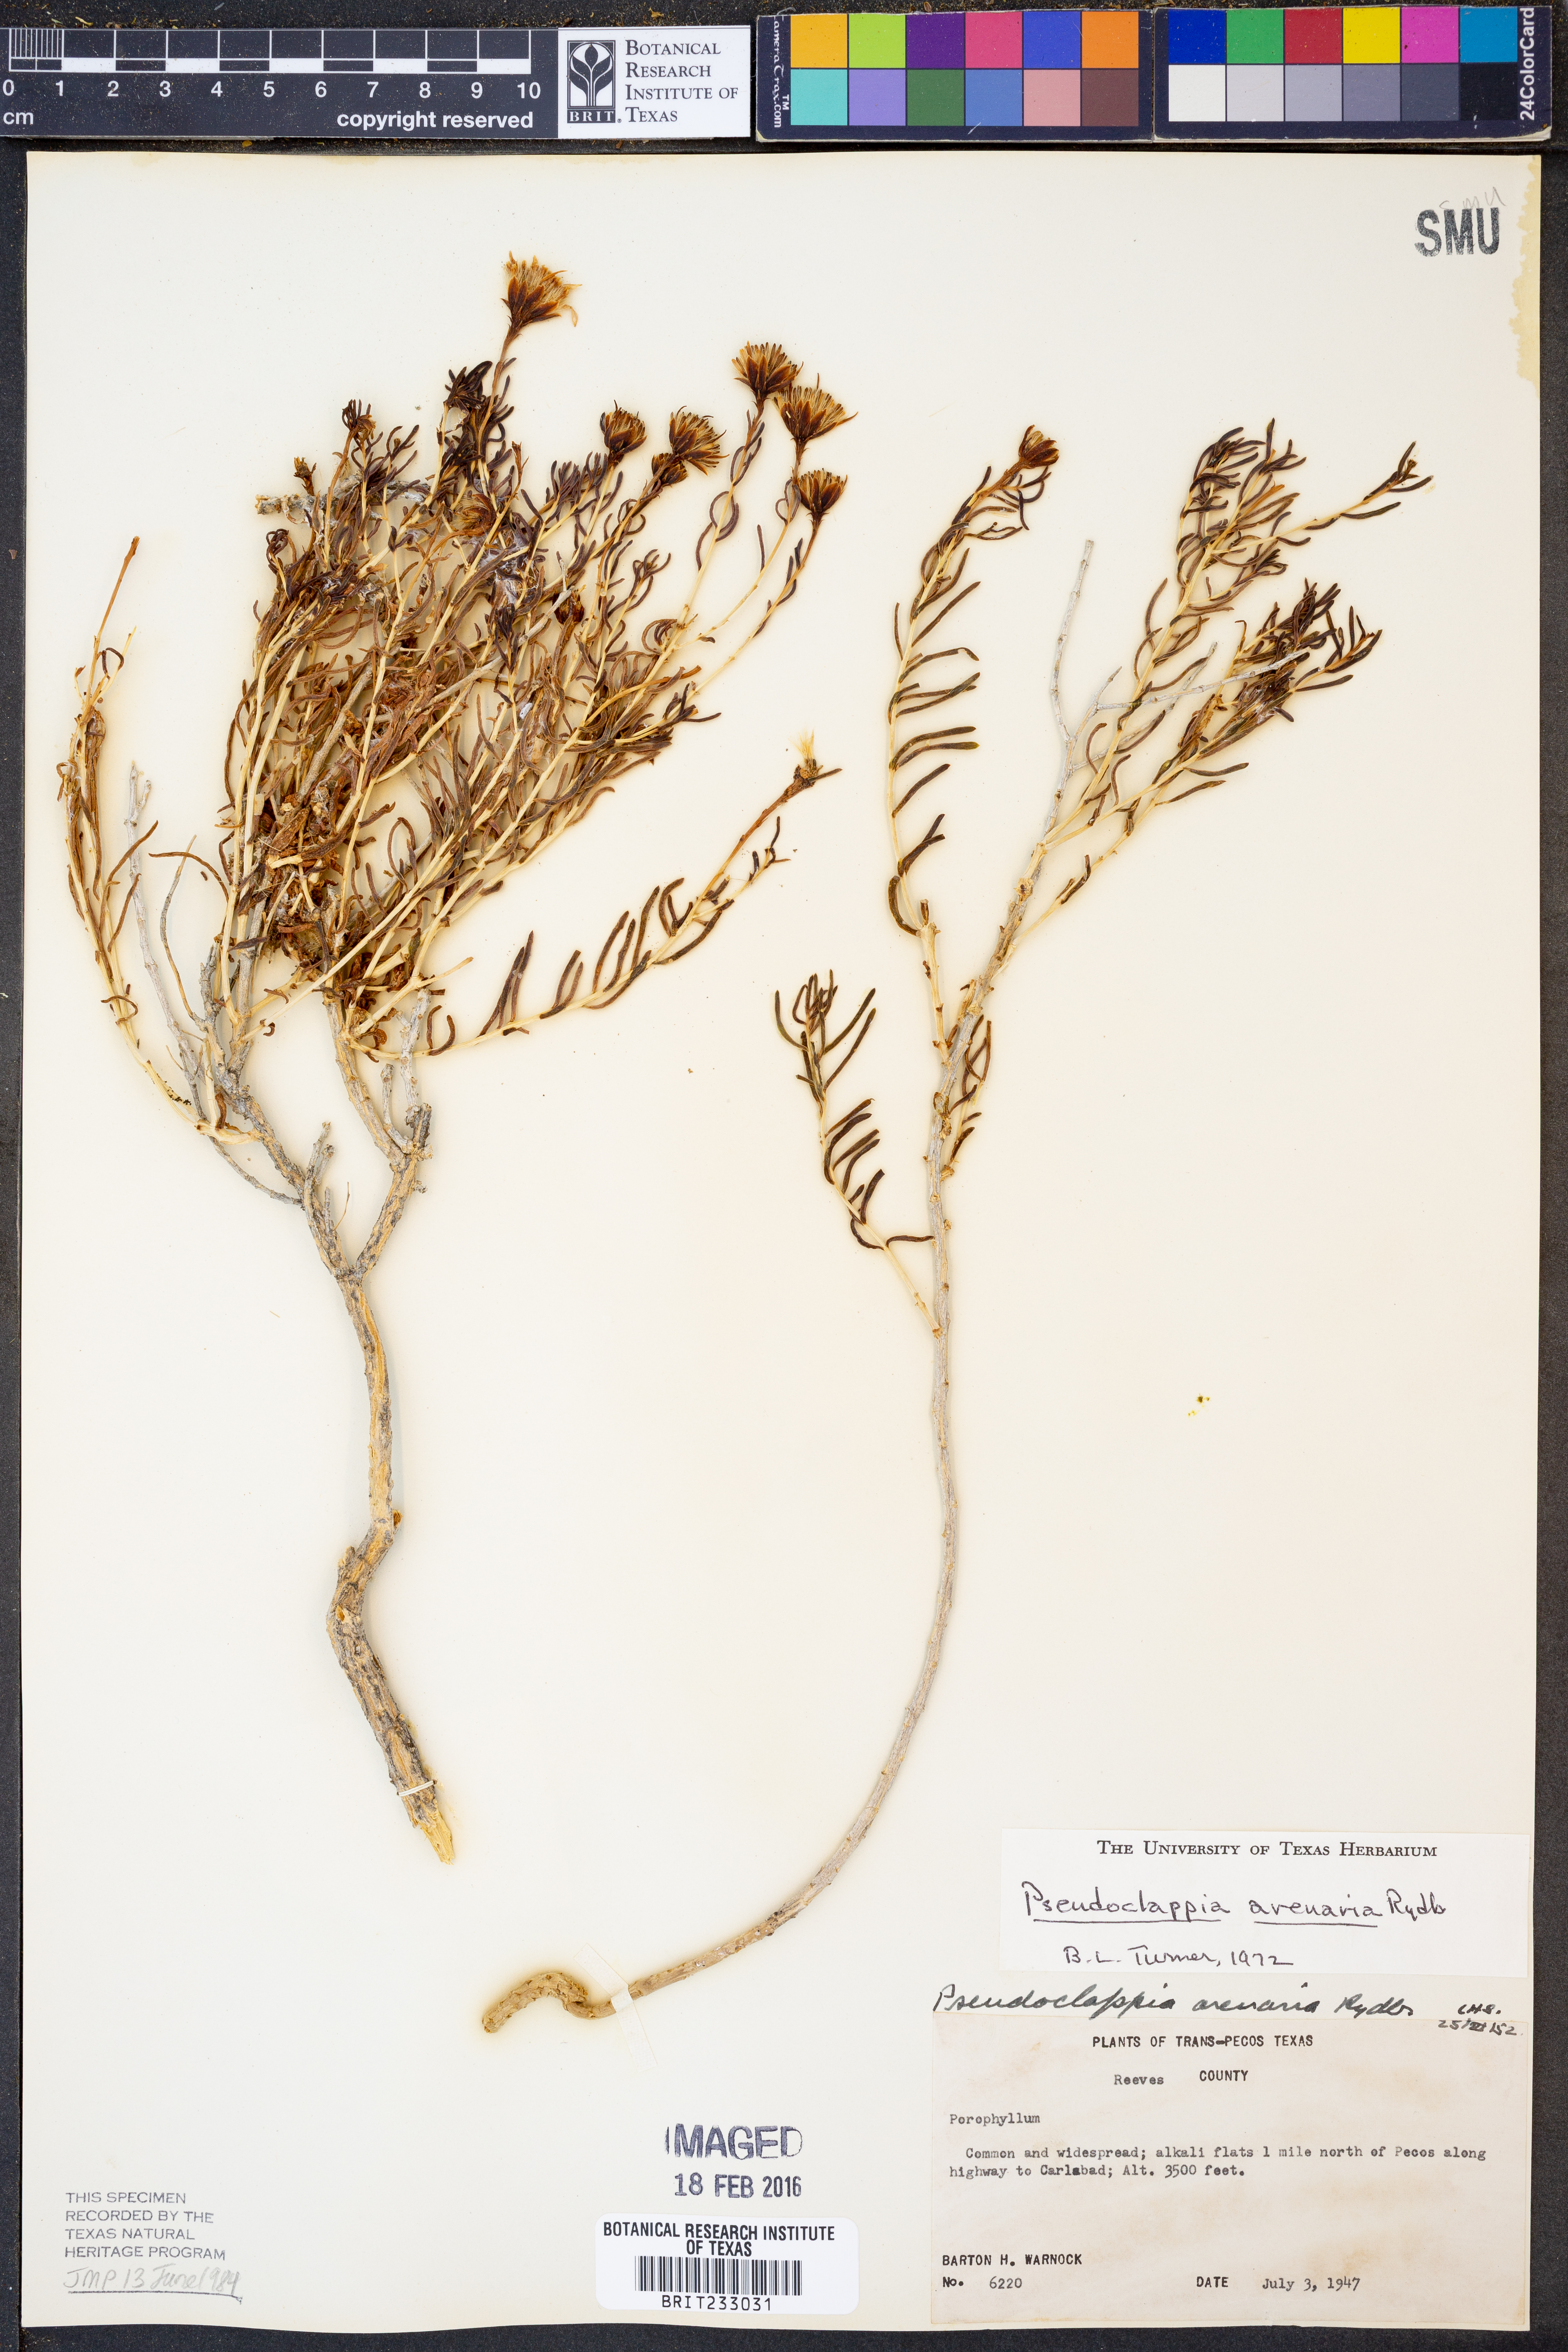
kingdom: Plantae
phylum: Tracheophyta
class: Magnoliopsida
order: Asterales
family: Asteraceae
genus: Pseudoclappia
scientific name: Pseudoclappia arenaria
